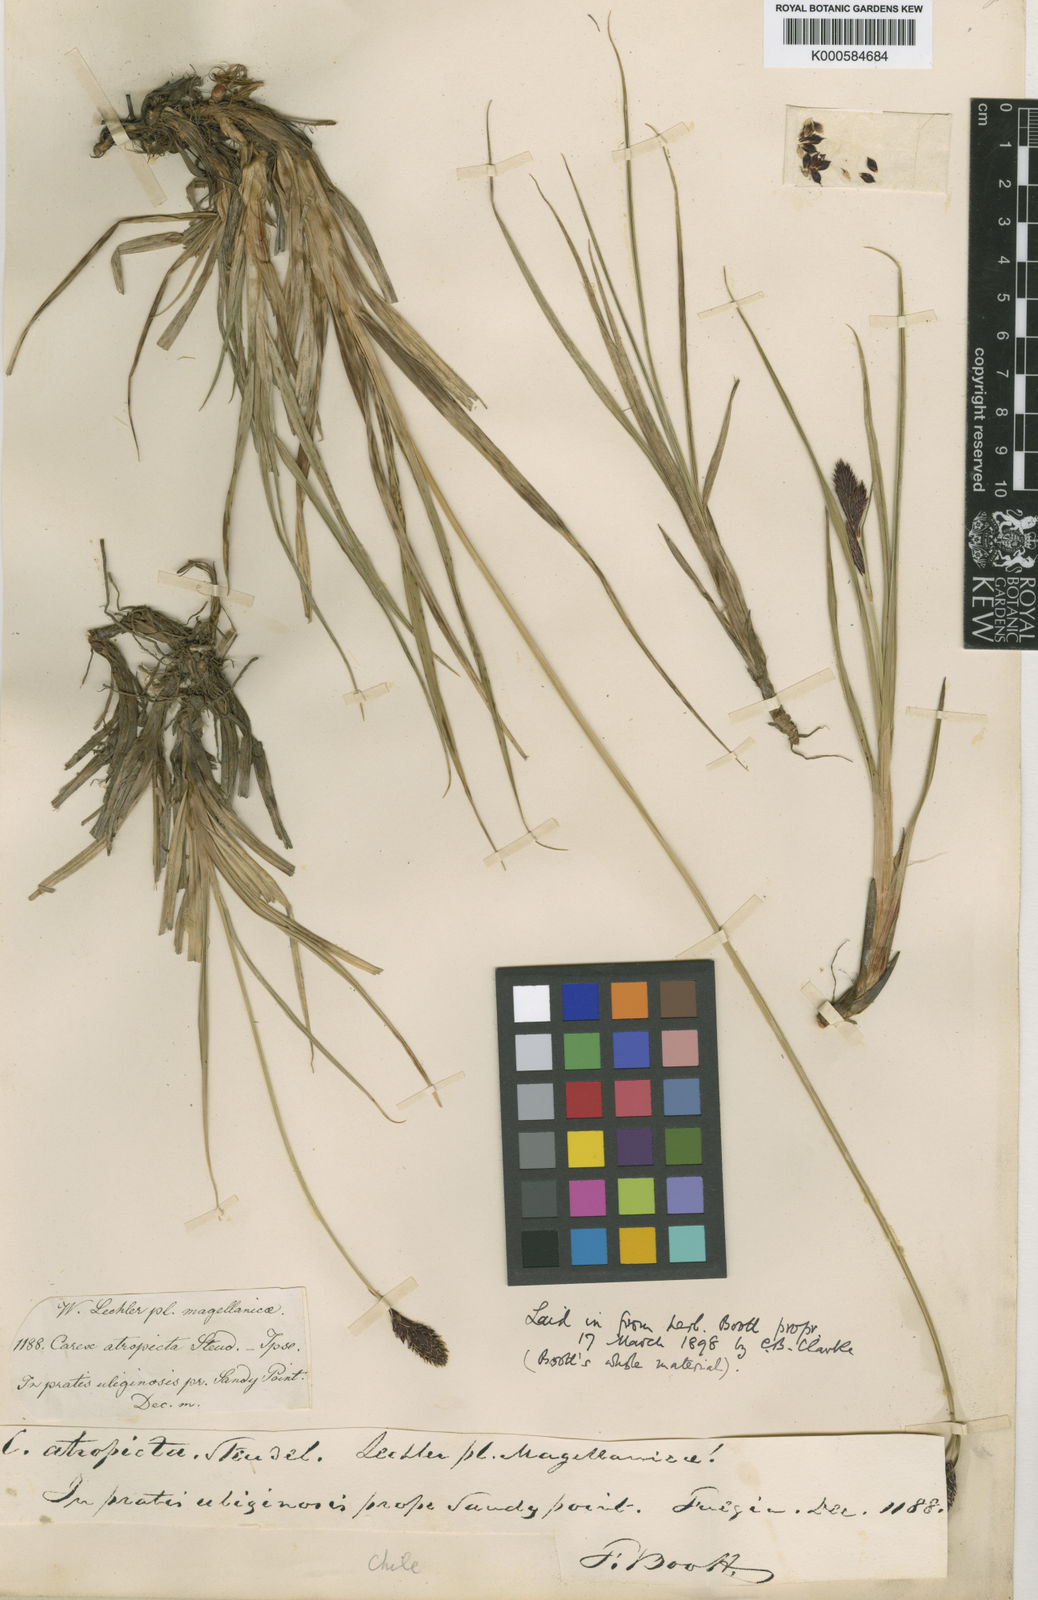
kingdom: Plantae
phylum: Tracheophyta
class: Liliopsida
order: Poales
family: Cyperaceae
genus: Carex
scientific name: Carex andersonii
